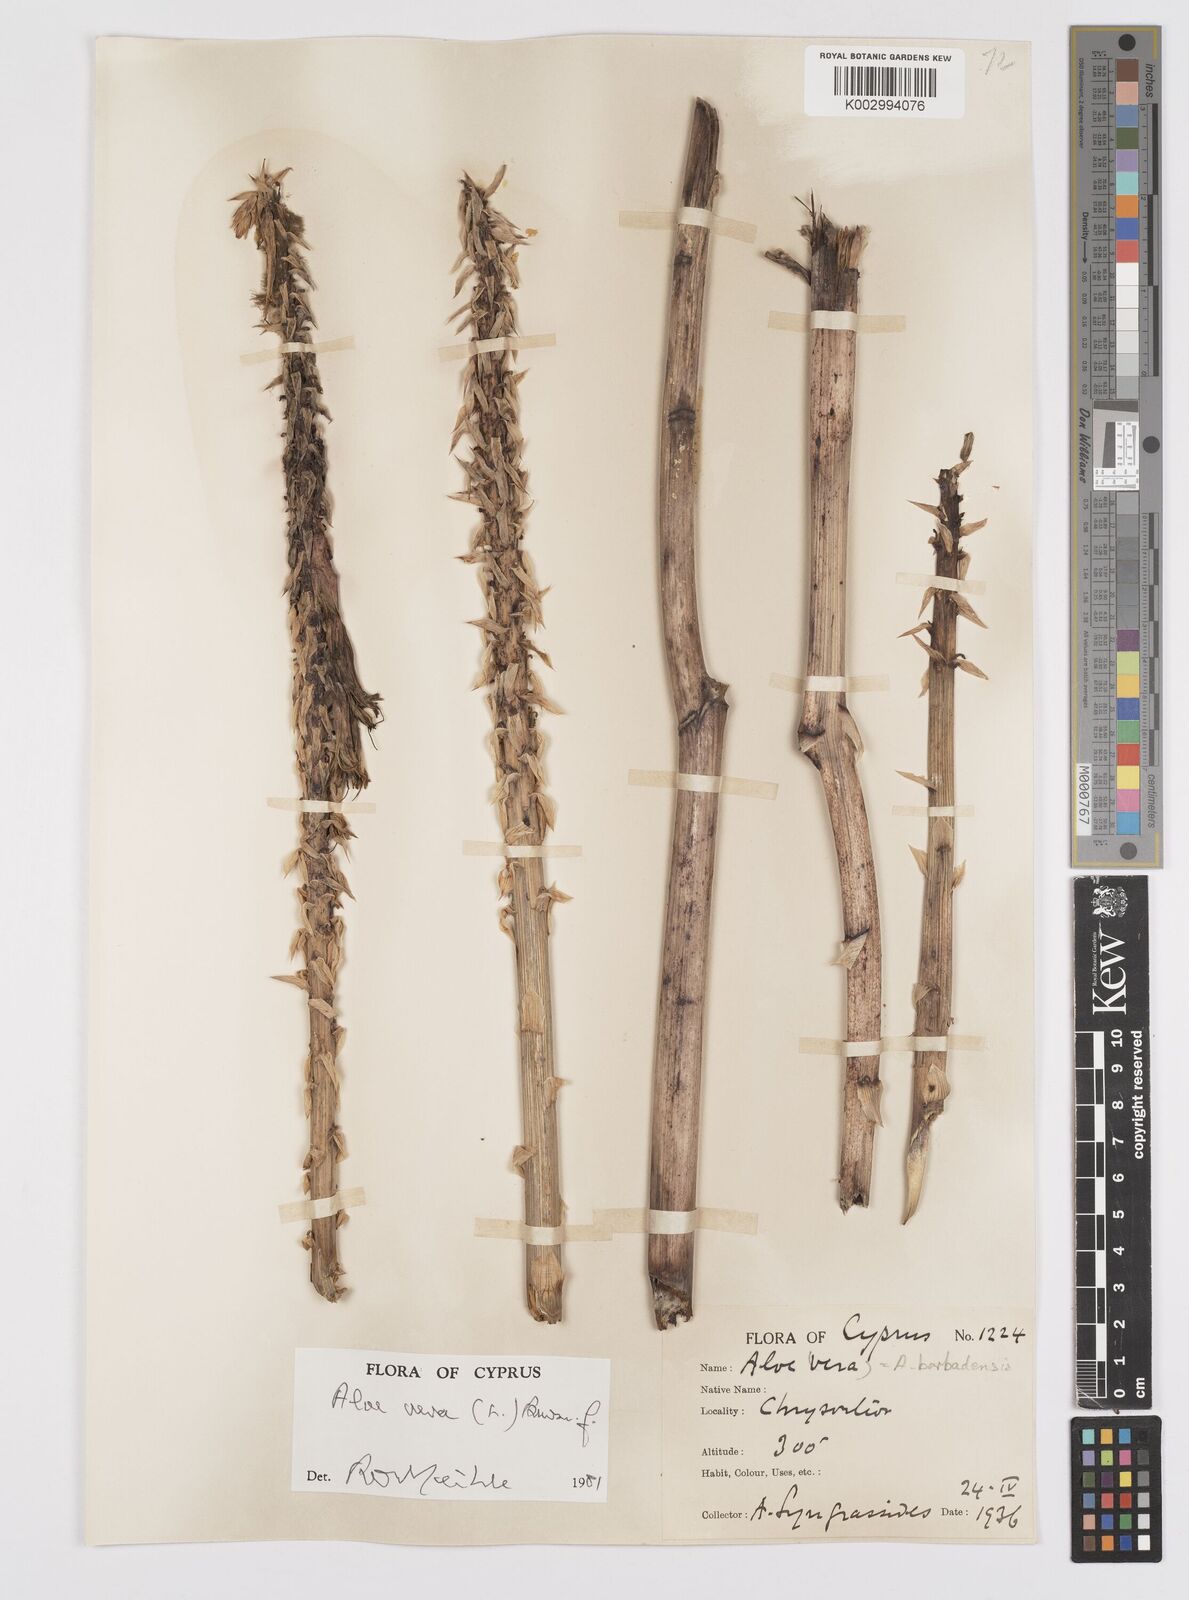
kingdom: Plantae
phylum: Tracheophyta
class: Liliopsida
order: Asparagales
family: Asphodelaceae
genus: Aloe
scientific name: Aloe vera
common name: Barbados aloe
